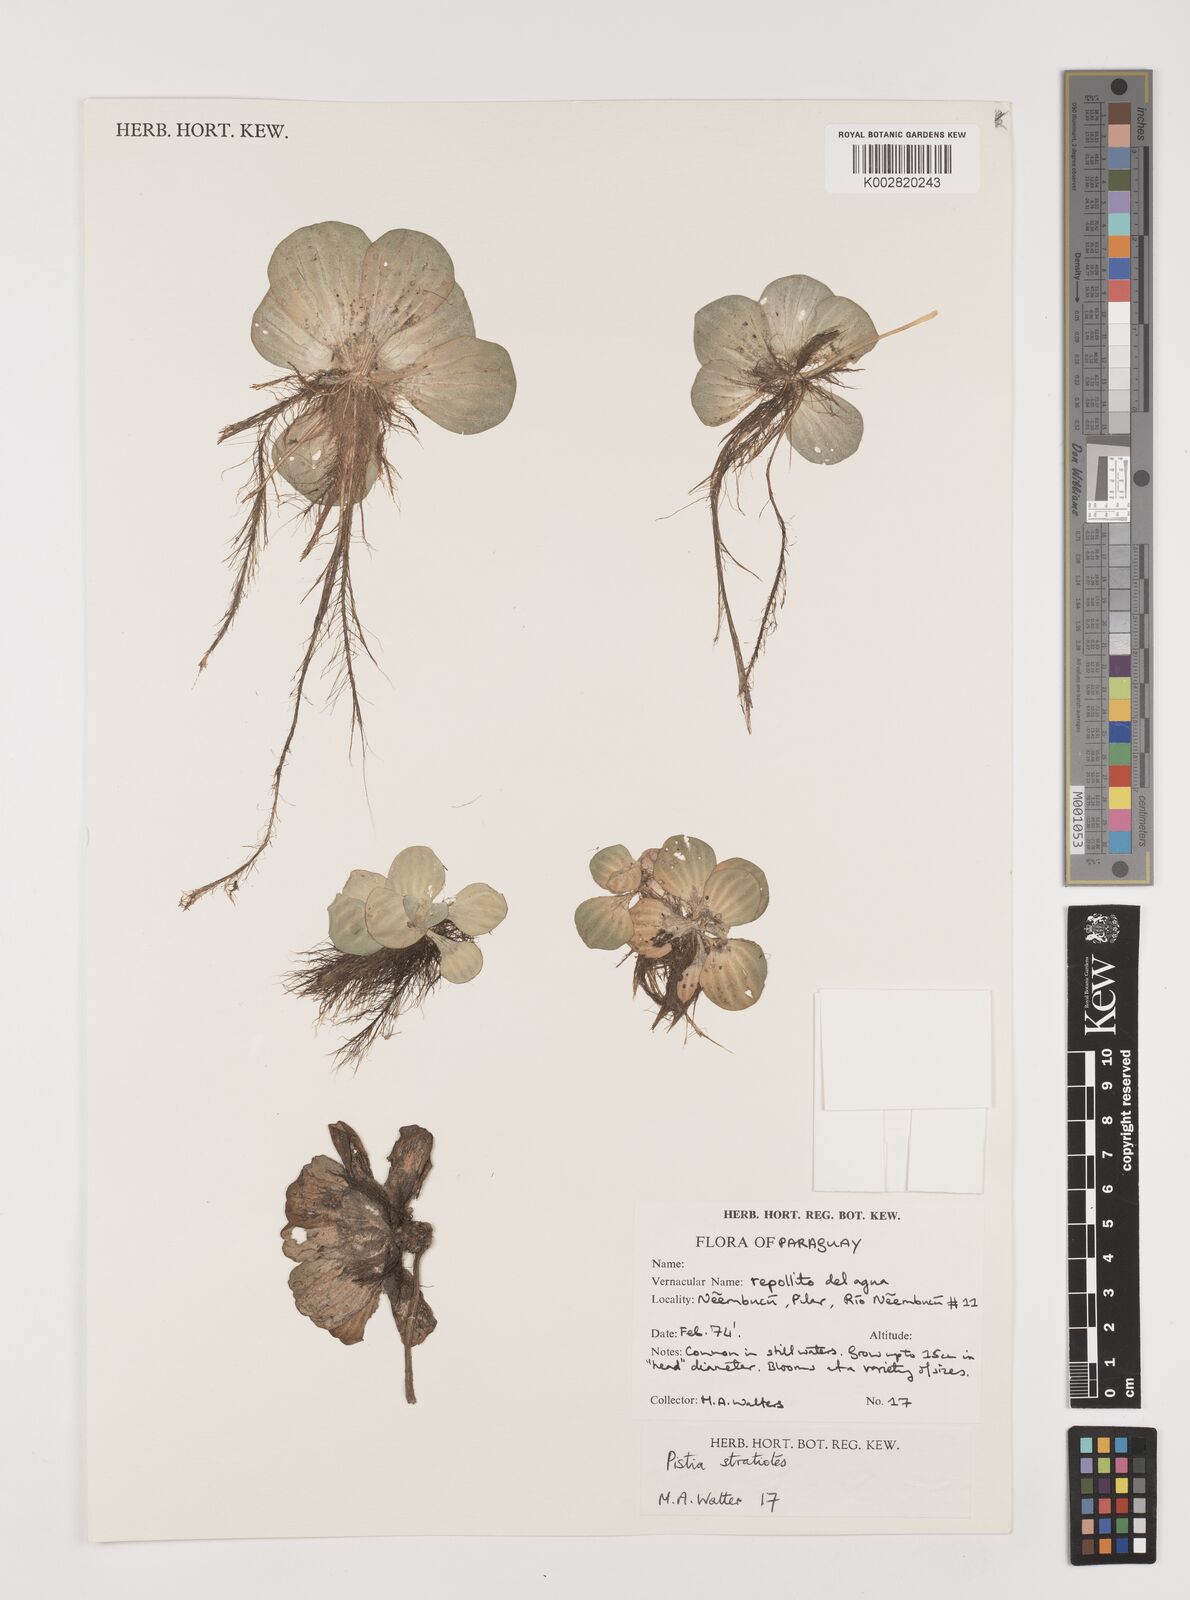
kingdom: Plantae
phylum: Tracheophyta
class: Liliopsida
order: Alismatales
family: Araceae
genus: Pistia
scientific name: Pistia stratiotes
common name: Water lettuce
